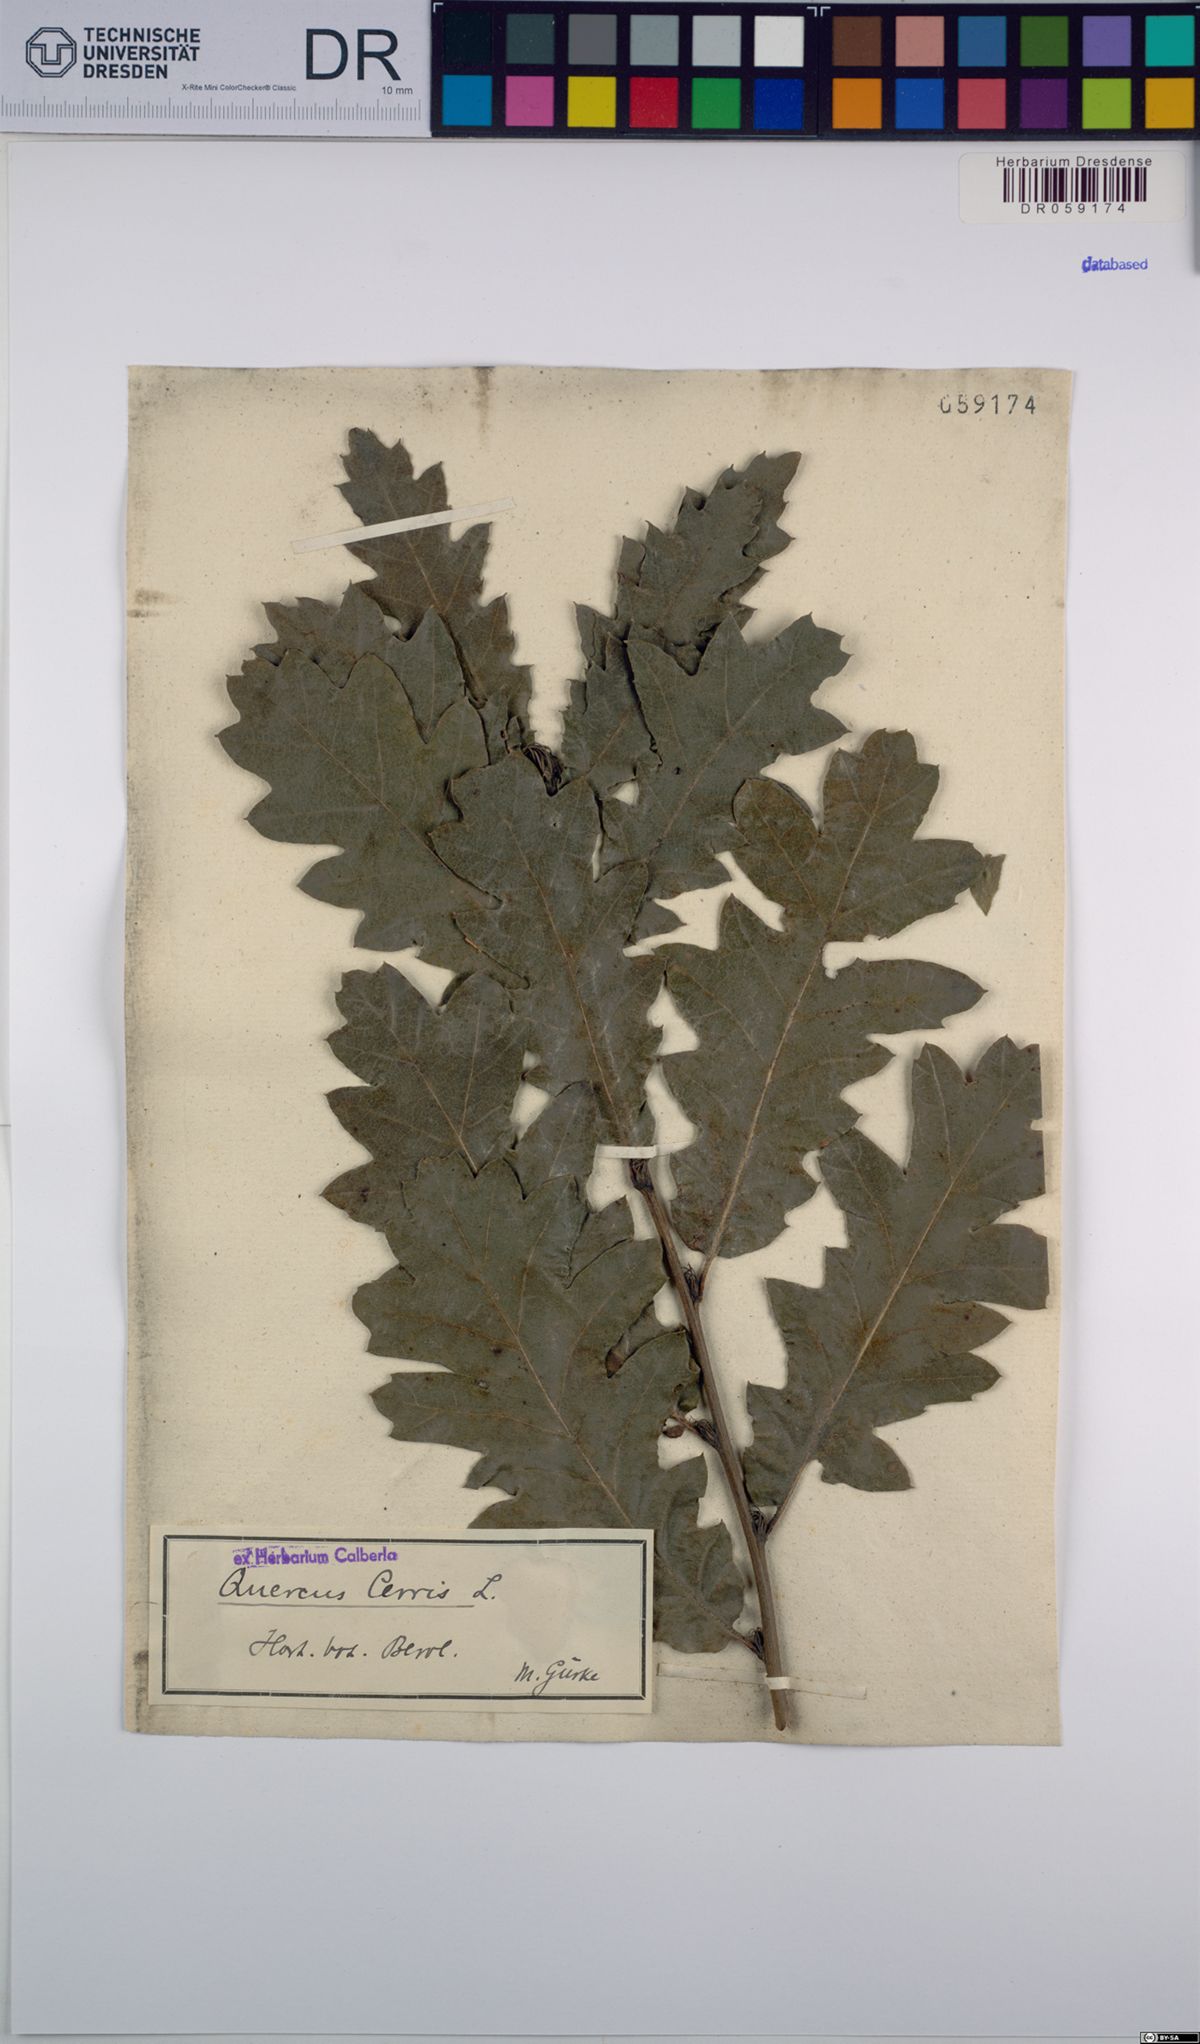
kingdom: Plantae
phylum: Tracheophyta
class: Magnoliopsida
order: Fagales
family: Fagaceae
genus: Quercus
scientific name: Quercus cerris
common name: Turkey oak
